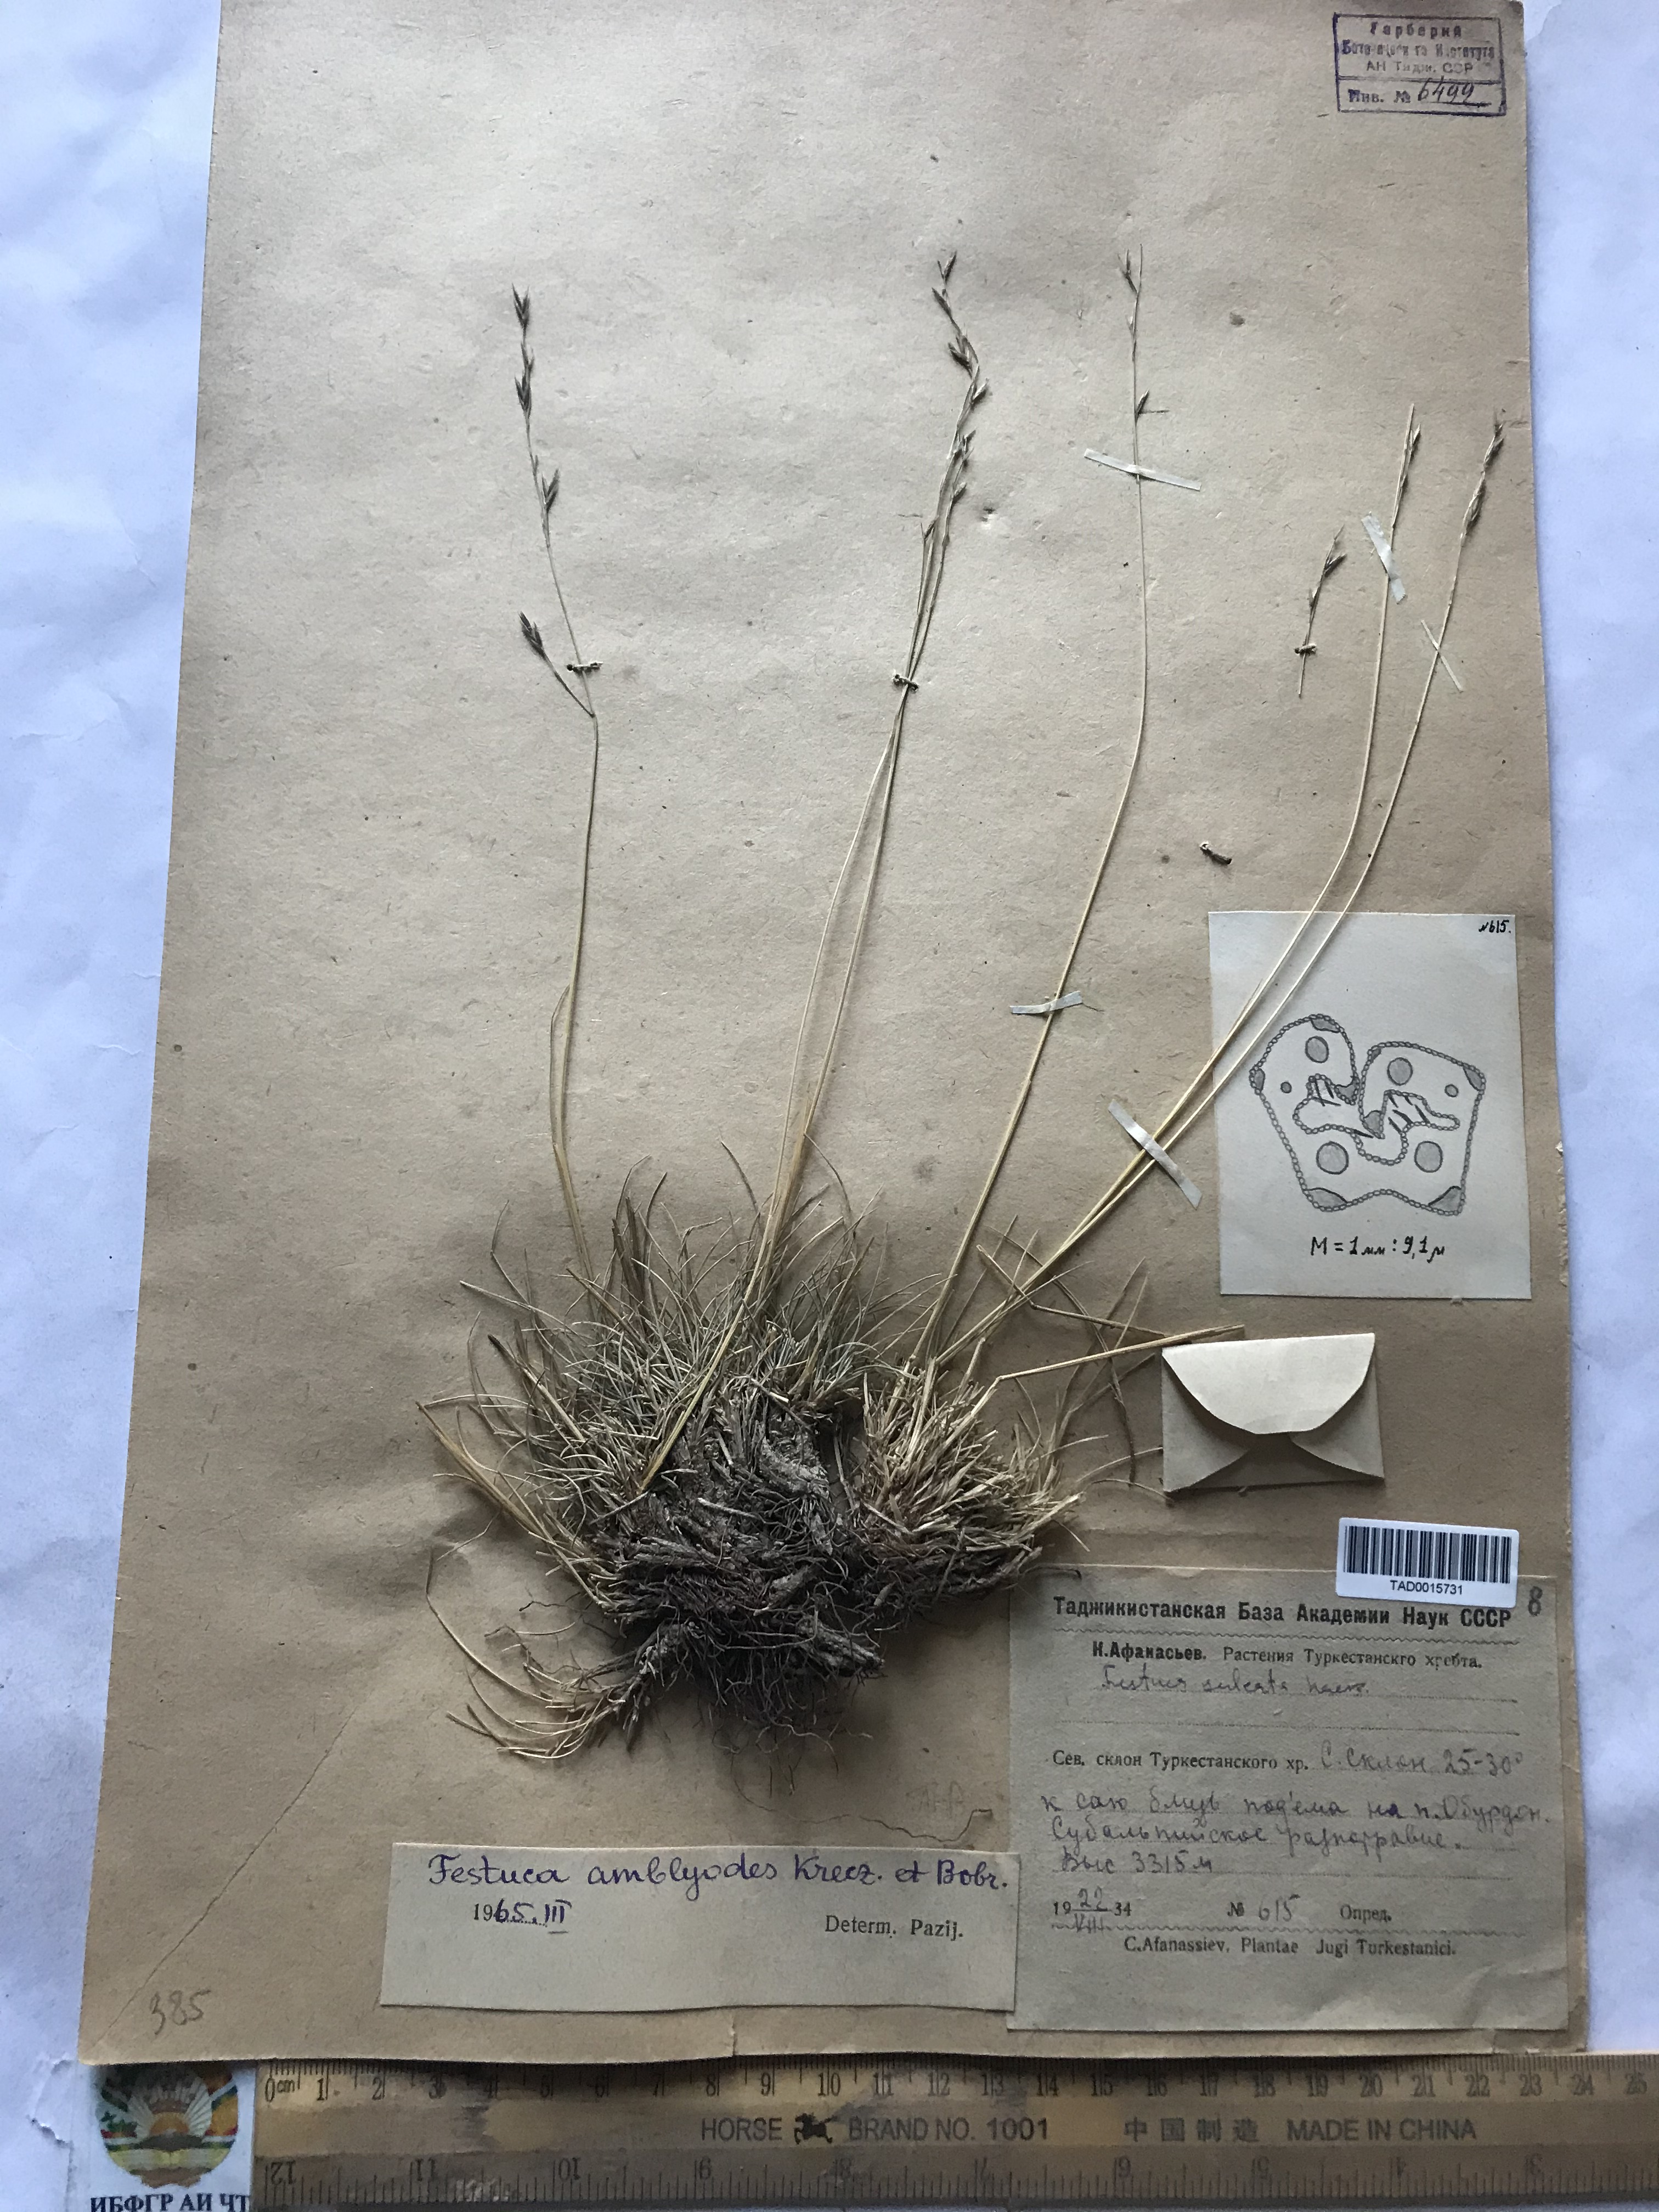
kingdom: Plantae
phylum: Tracheophyta
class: Liliopsida
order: Poales
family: Poaceae
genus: Festuca
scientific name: Festuca amblyodes
